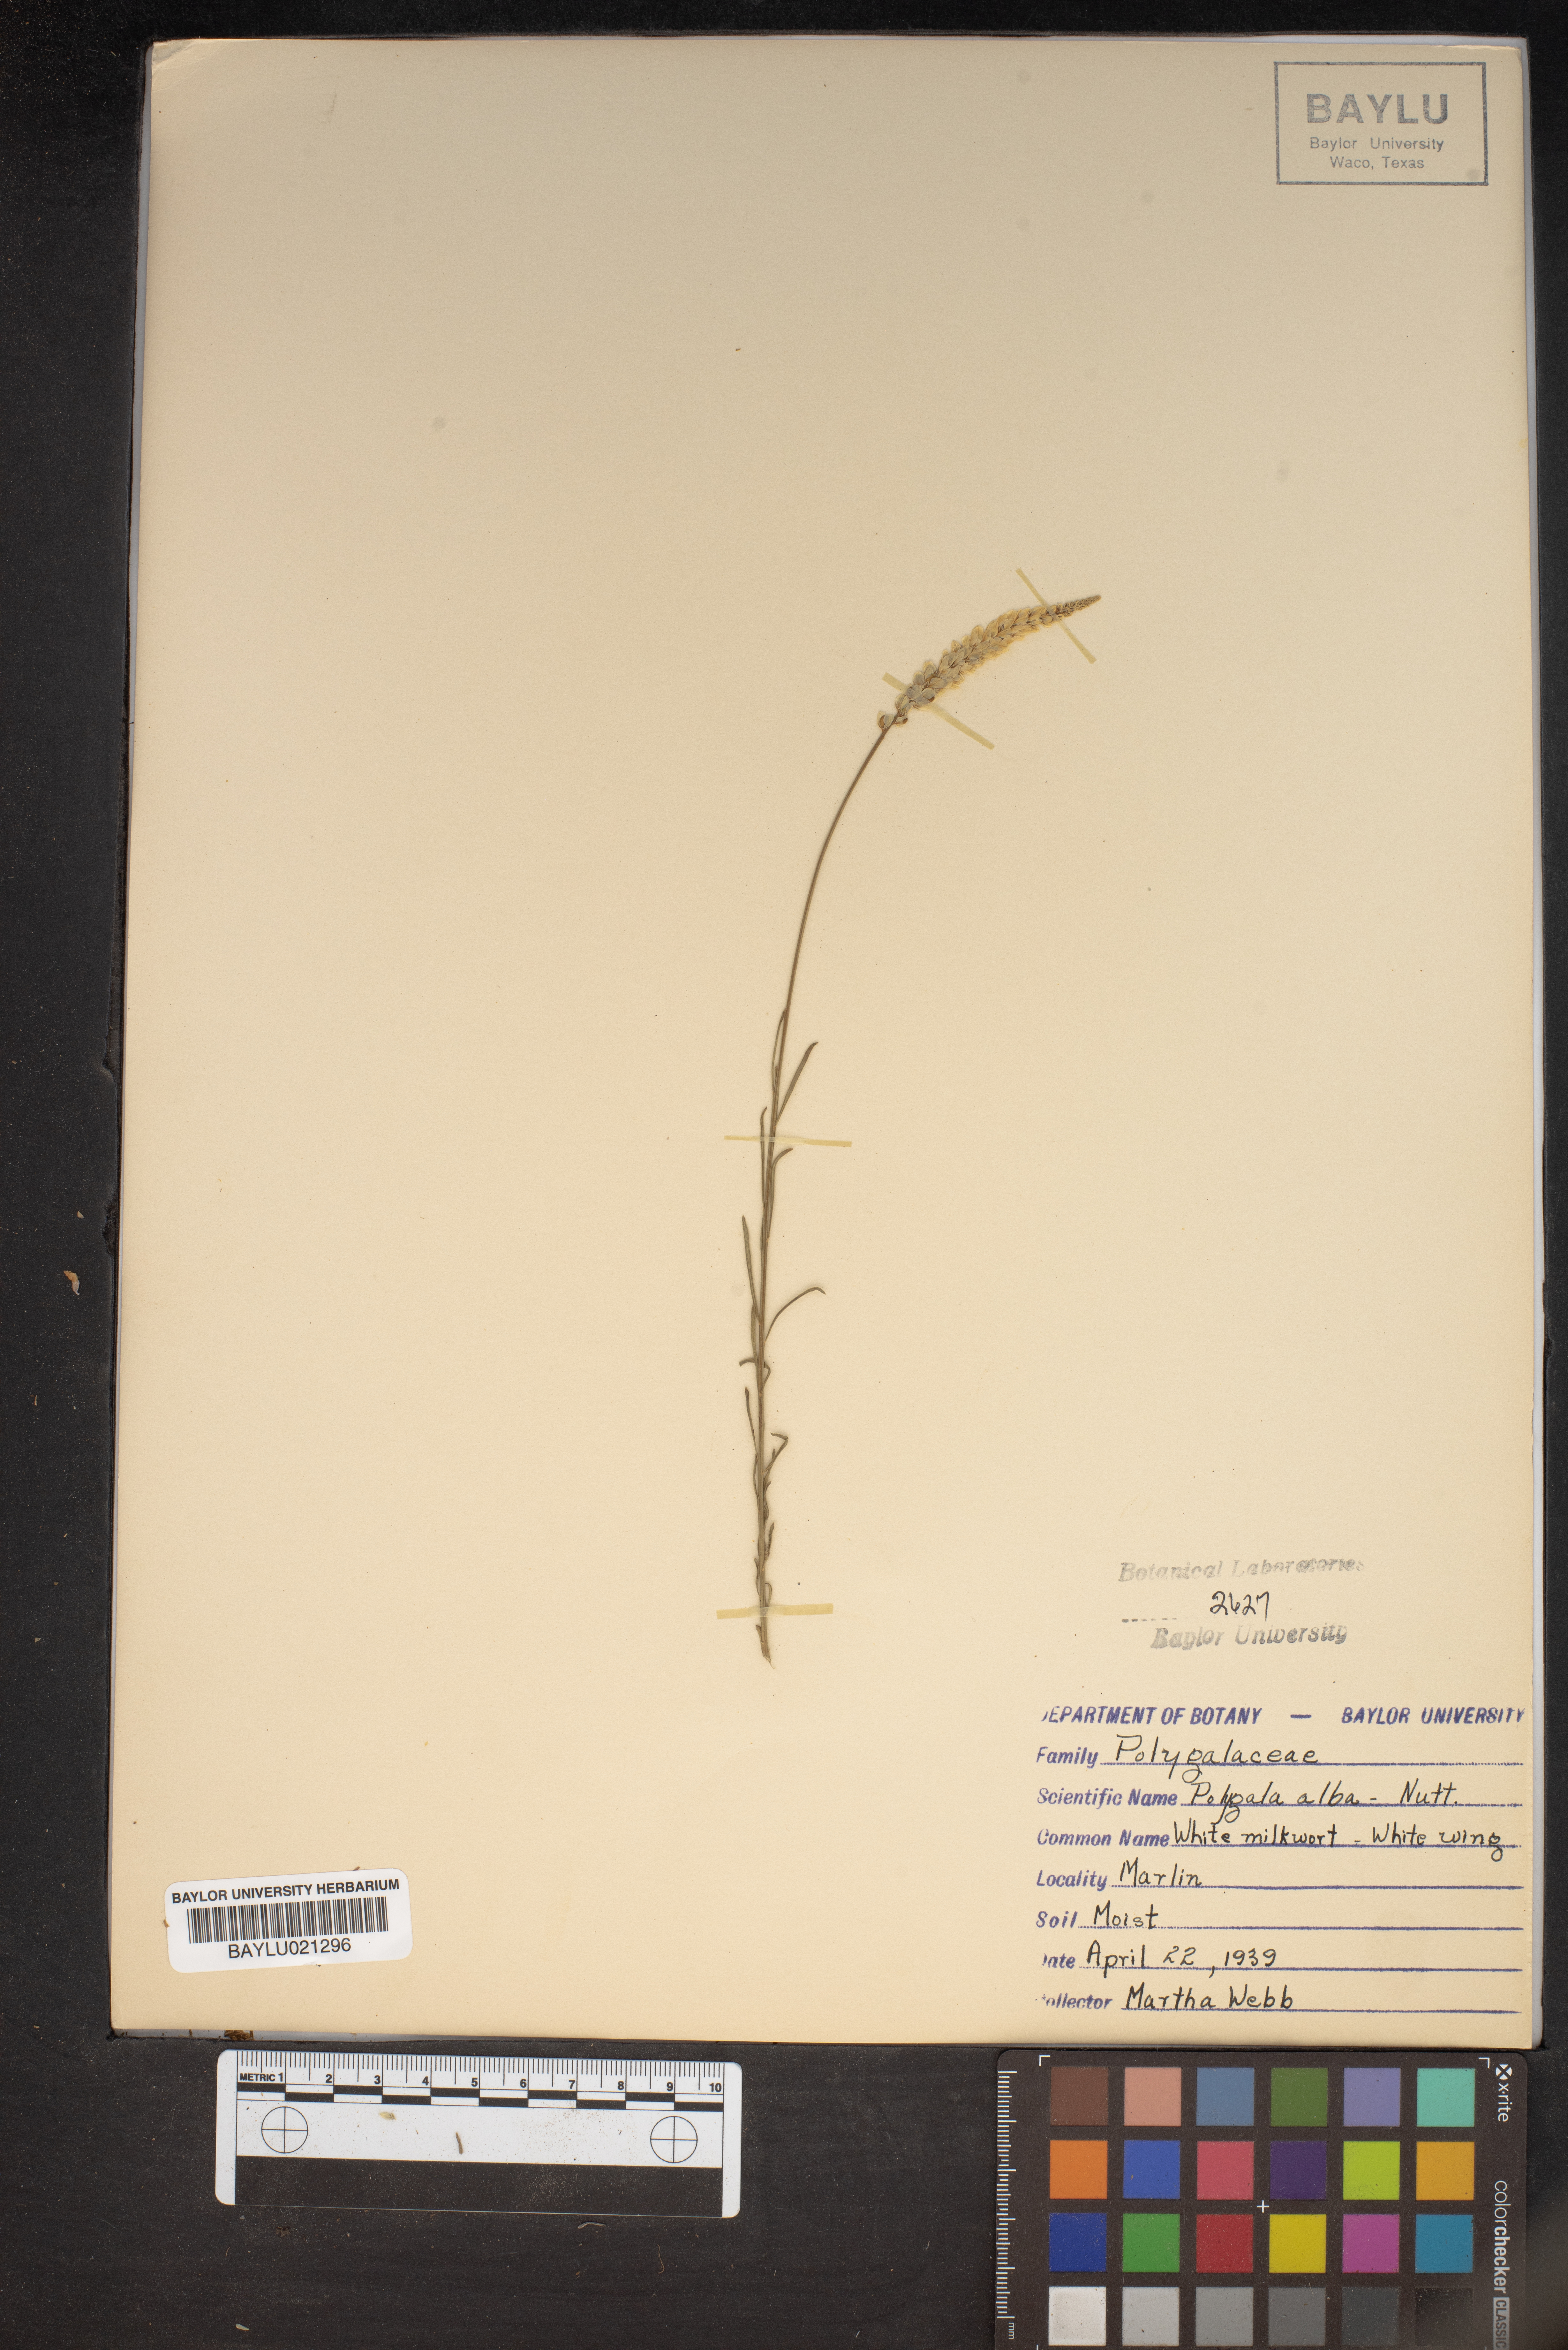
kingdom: Plantae
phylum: Tracheophyta
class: Magnoliopsida
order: Fabales
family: Polygalaceae
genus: Polygala
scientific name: Polygala alba
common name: White milkwort
